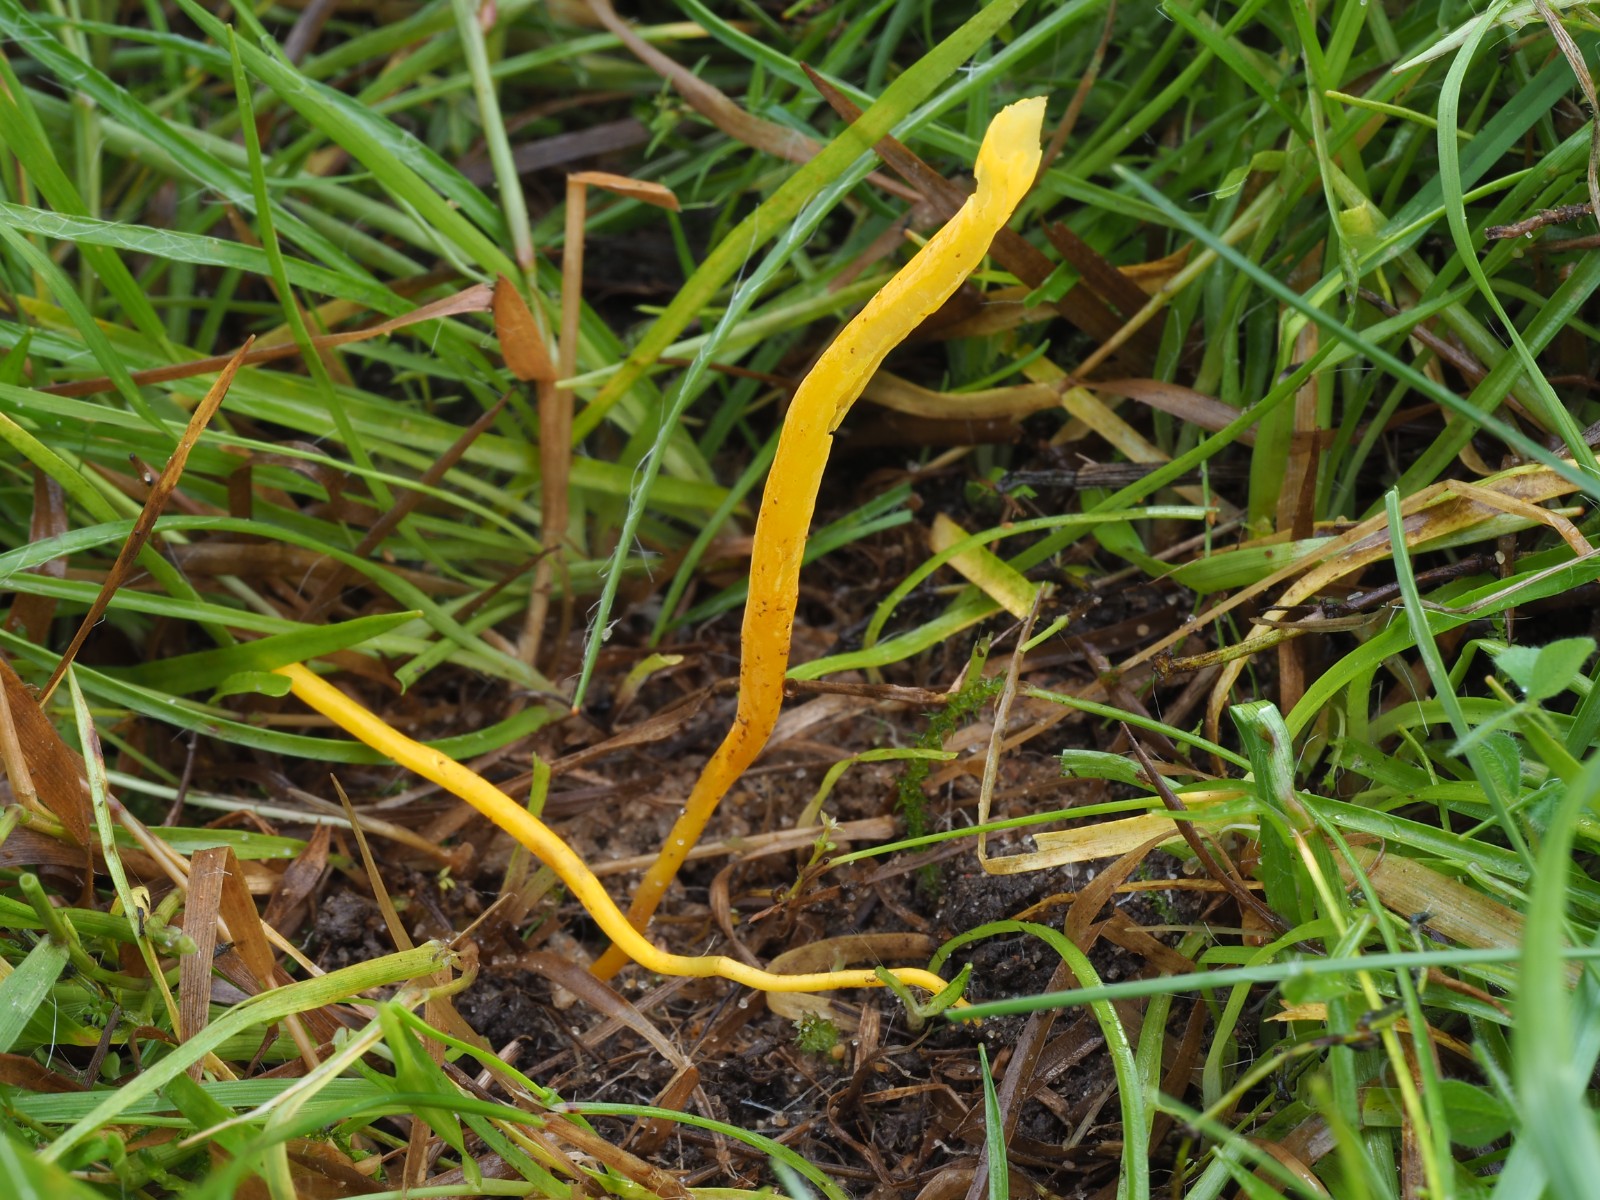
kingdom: Fungi
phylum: Basidiomycota
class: Agaricomycetes
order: Agaricales
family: Clavariaceae
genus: Clavulinopsis
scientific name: Clavulinopsis laeticolor
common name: flamme-køllesvamp
